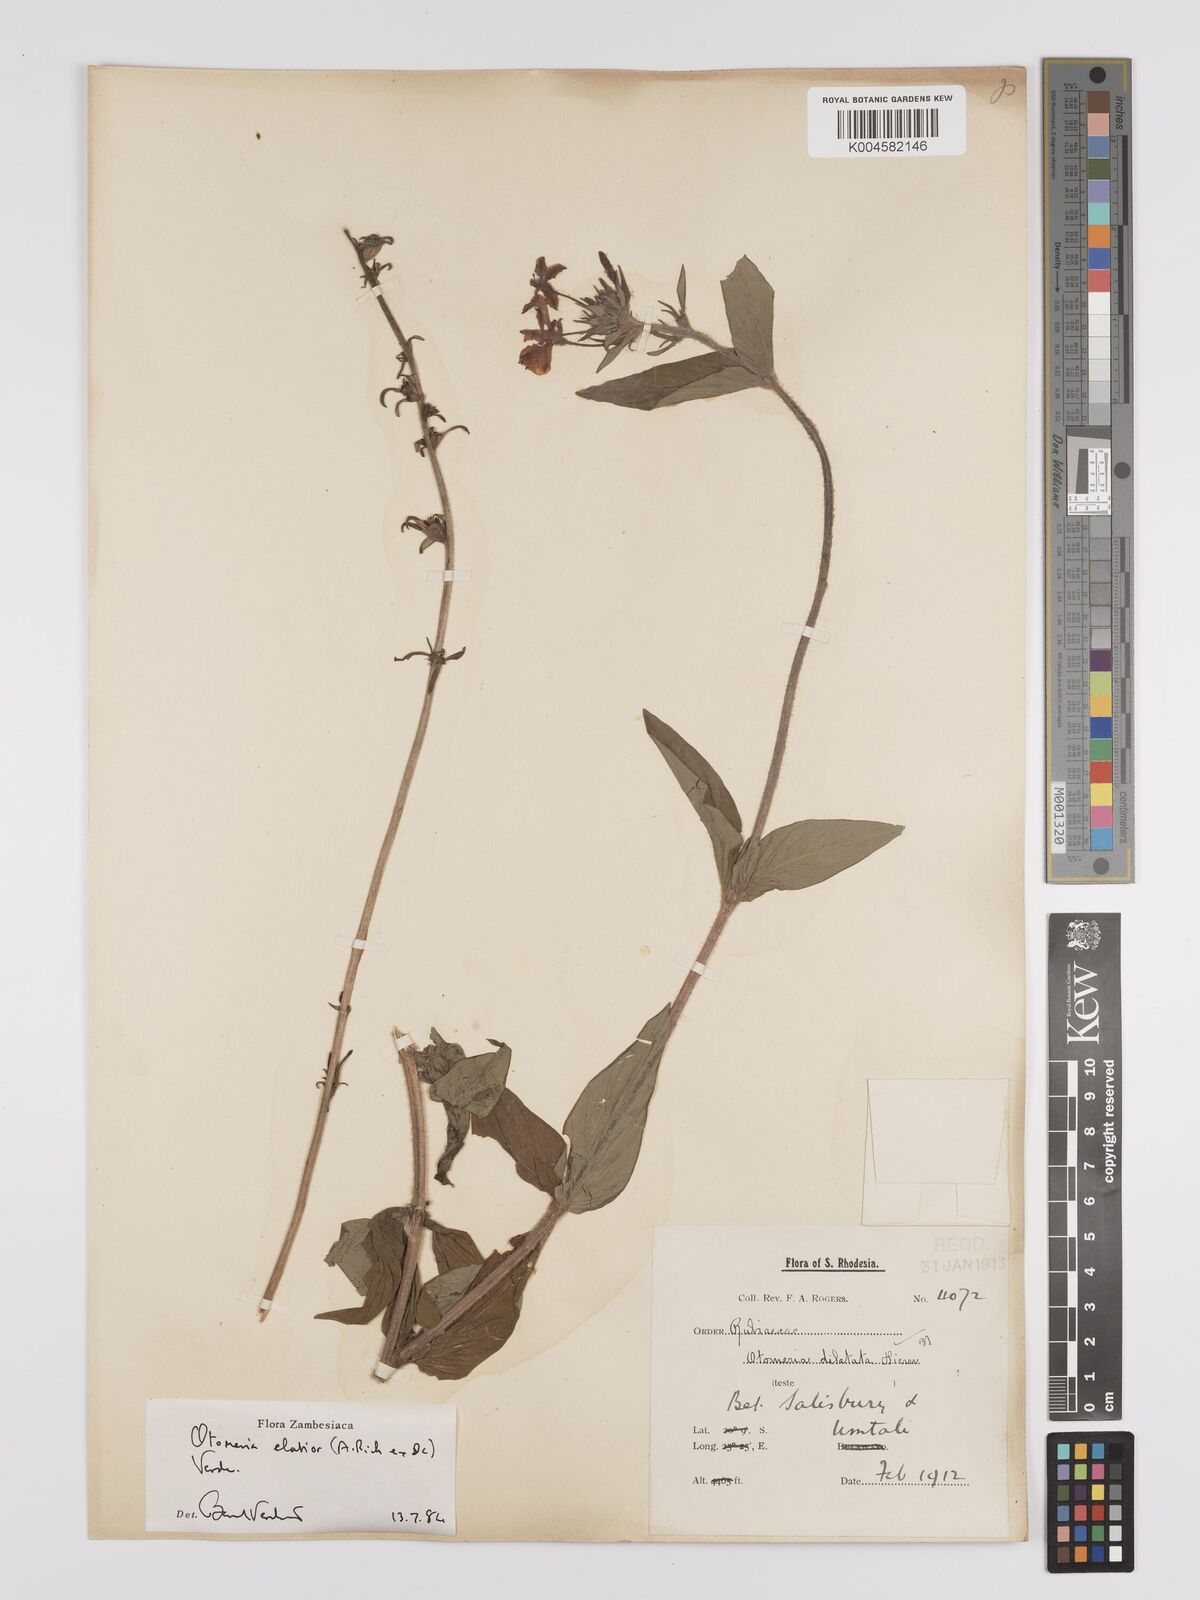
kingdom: Plantae
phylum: Tracheophyta
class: Magnoliopsida
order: Gentianales
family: Rubiaceae
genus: Otomeria
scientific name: Otomeria elatior
